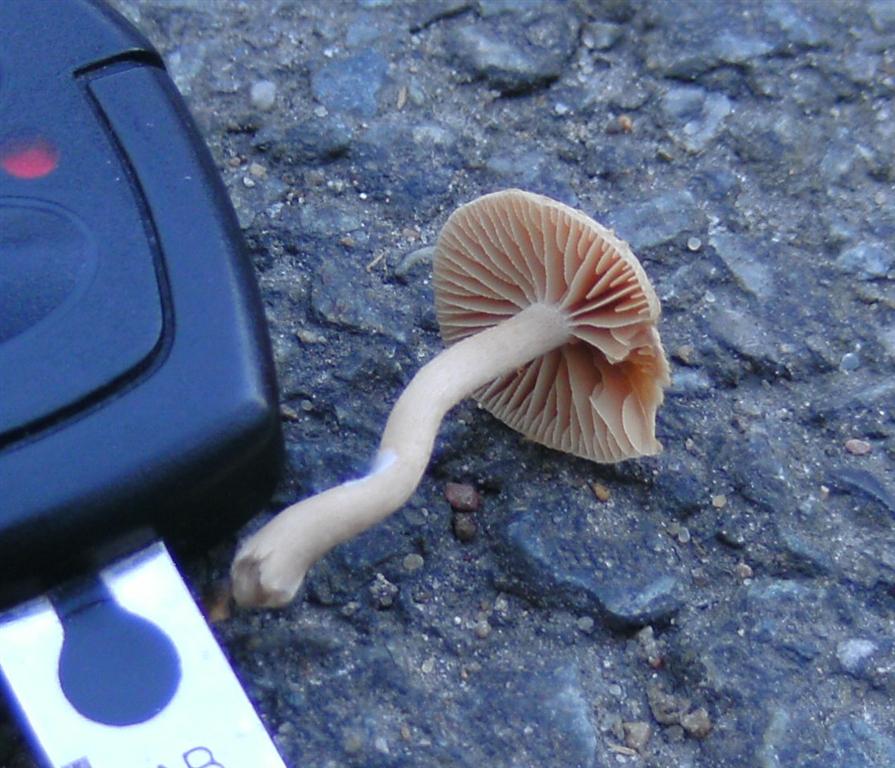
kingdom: Fungi
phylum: Basidiomycota
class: Agaricomycetes
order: Agaricales
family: Tubariaceae
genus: Tubaria
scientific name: Tubaria furfuracea
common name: kliddet fnughat
